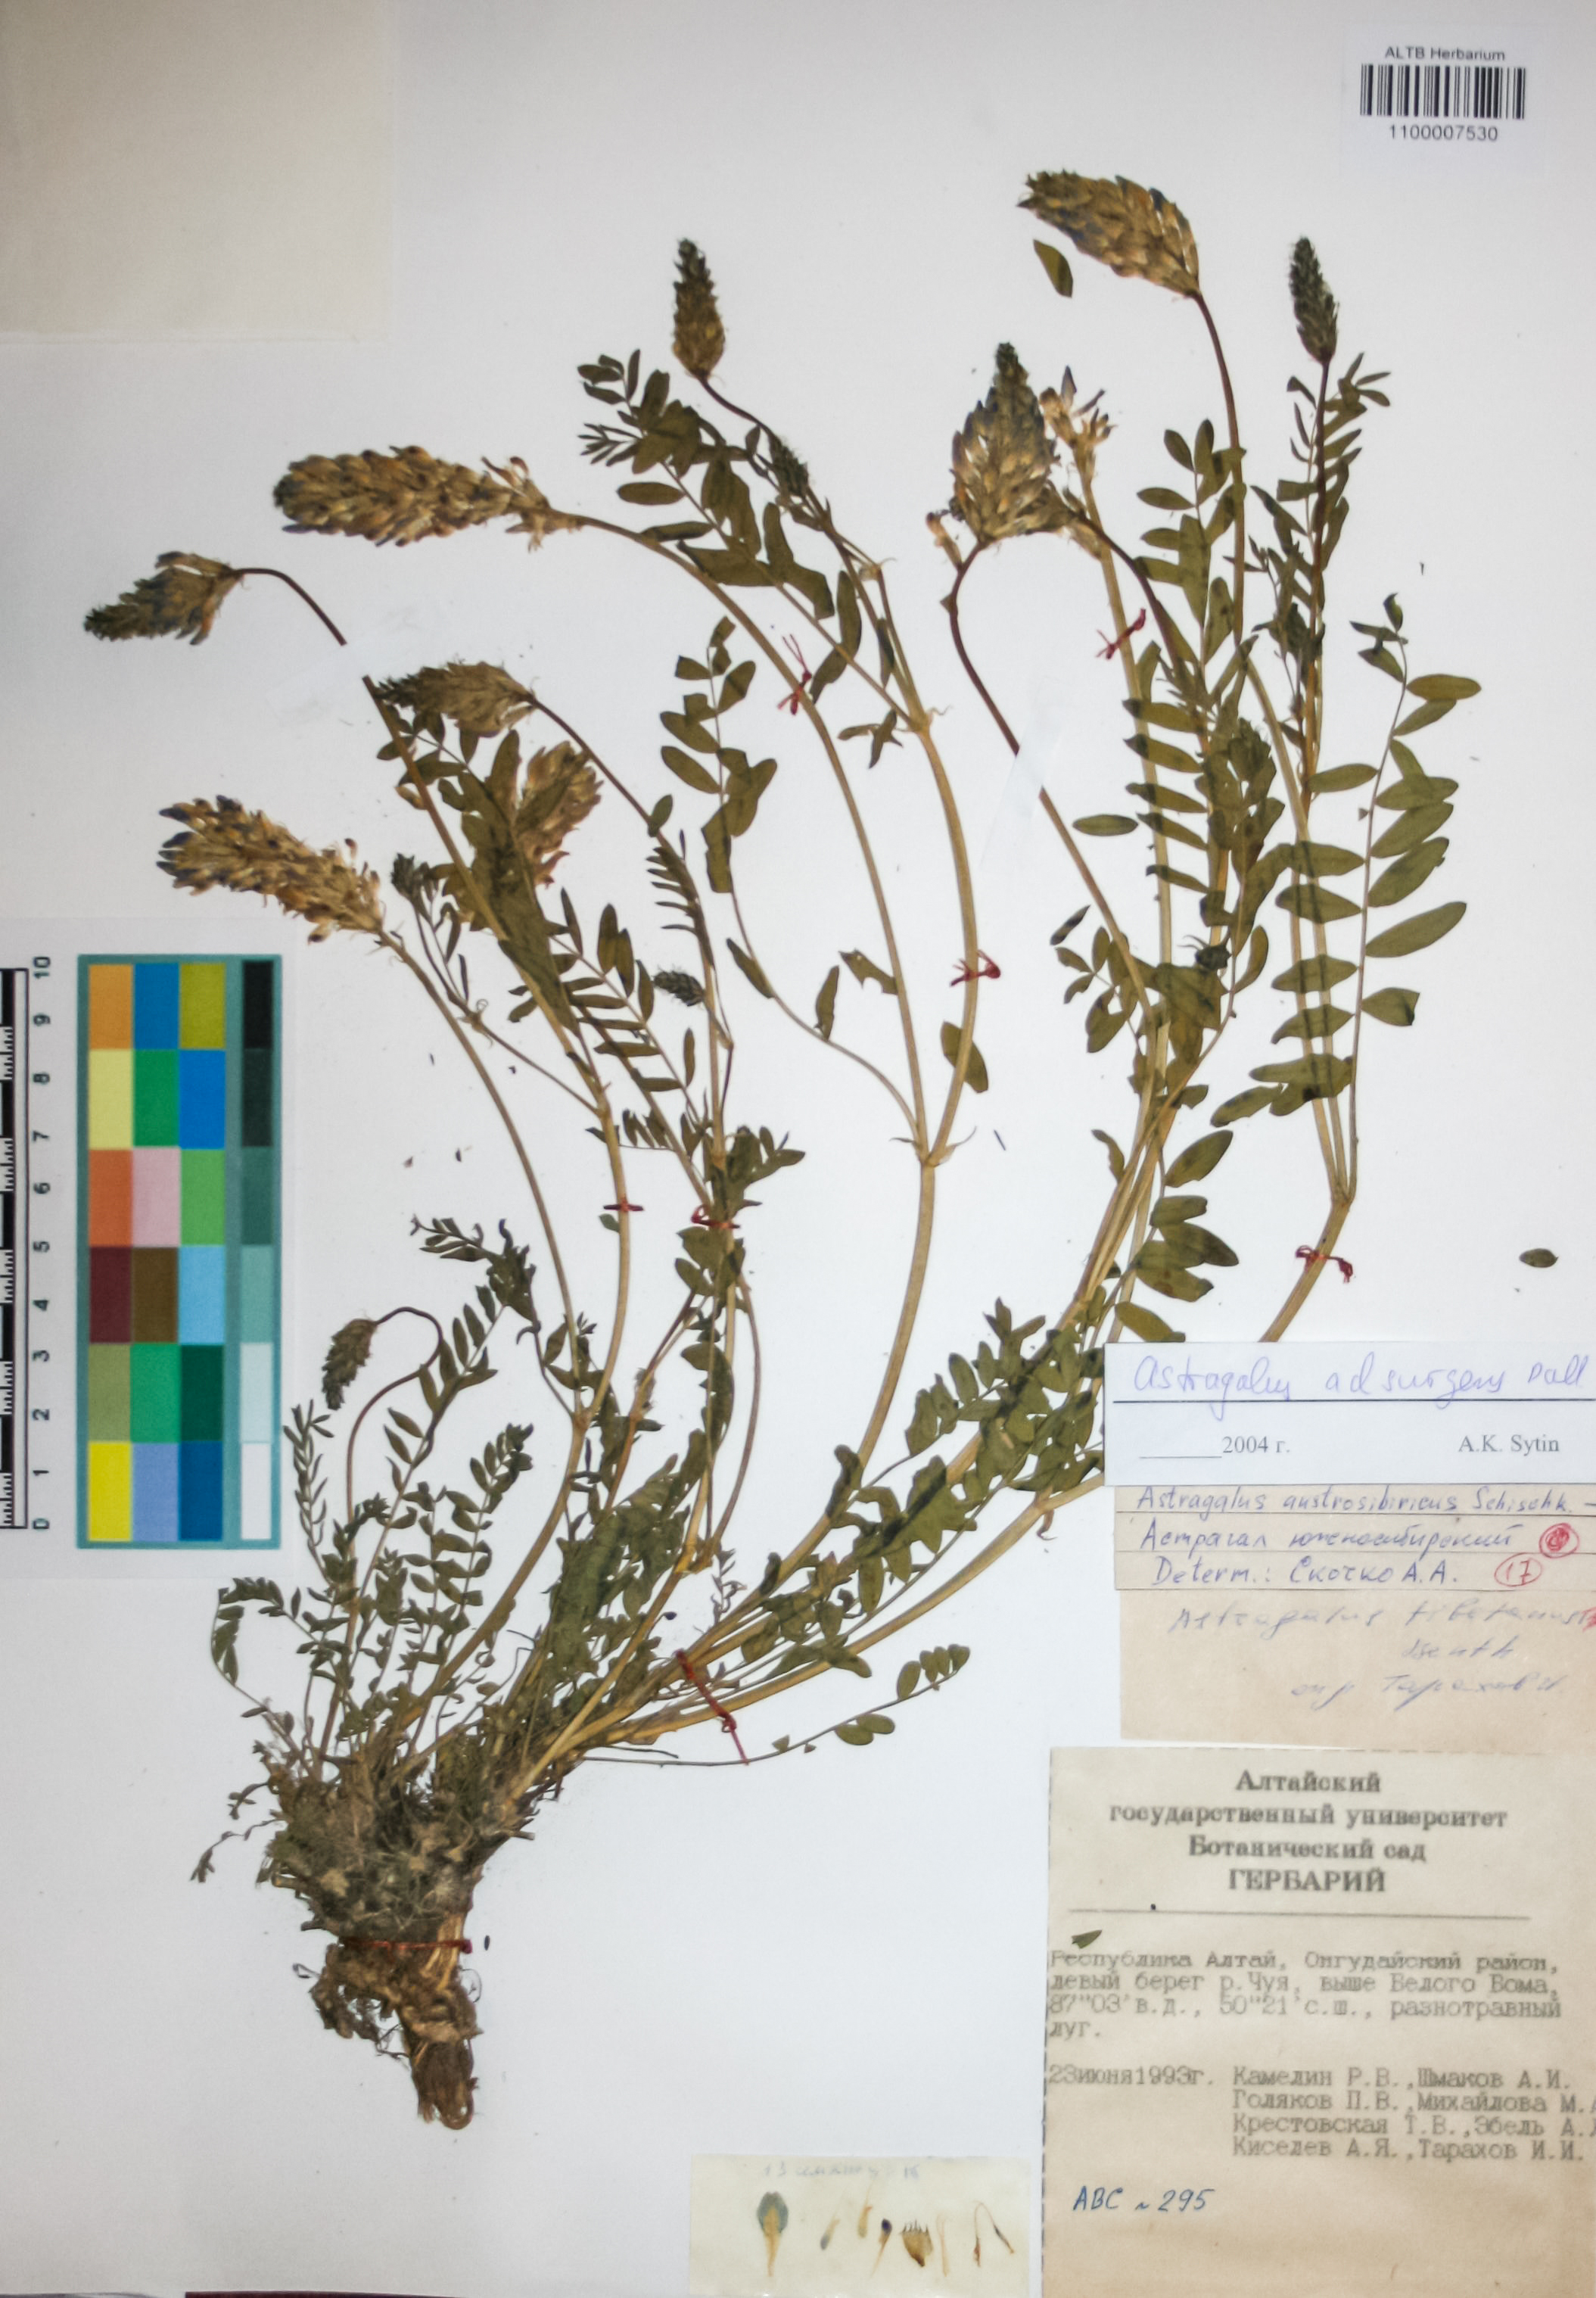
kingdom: Plantae
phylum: Tracheophyta
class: Magnoliopsida
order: Fabales
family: Fabaceae
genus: Astragalus
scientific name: Astragalus laxmannii
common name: Laxmann's milk-vetch
